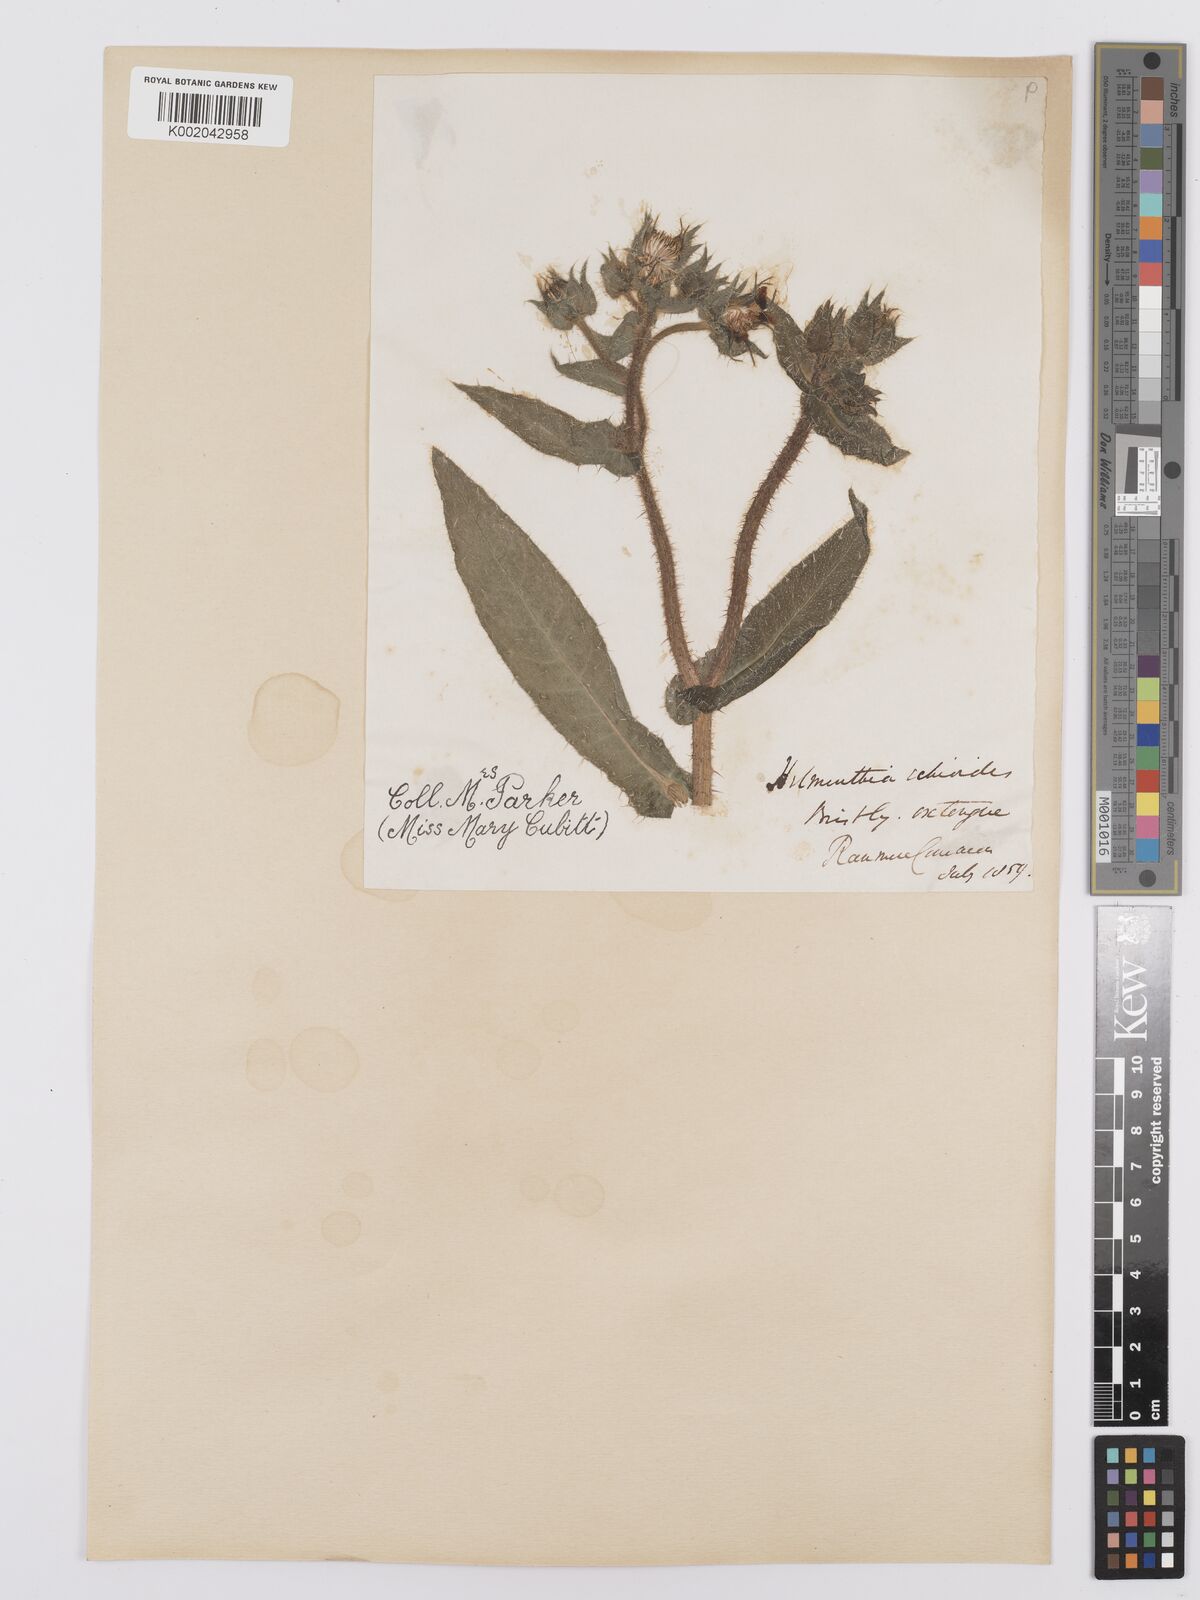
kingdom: Plantae
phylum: Tracheophyta
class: Magnoliopsida
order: Asterales
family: Asteraceae
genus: Helminthotheca
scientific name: Helminthotheca echioides
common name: Ox-tongue
